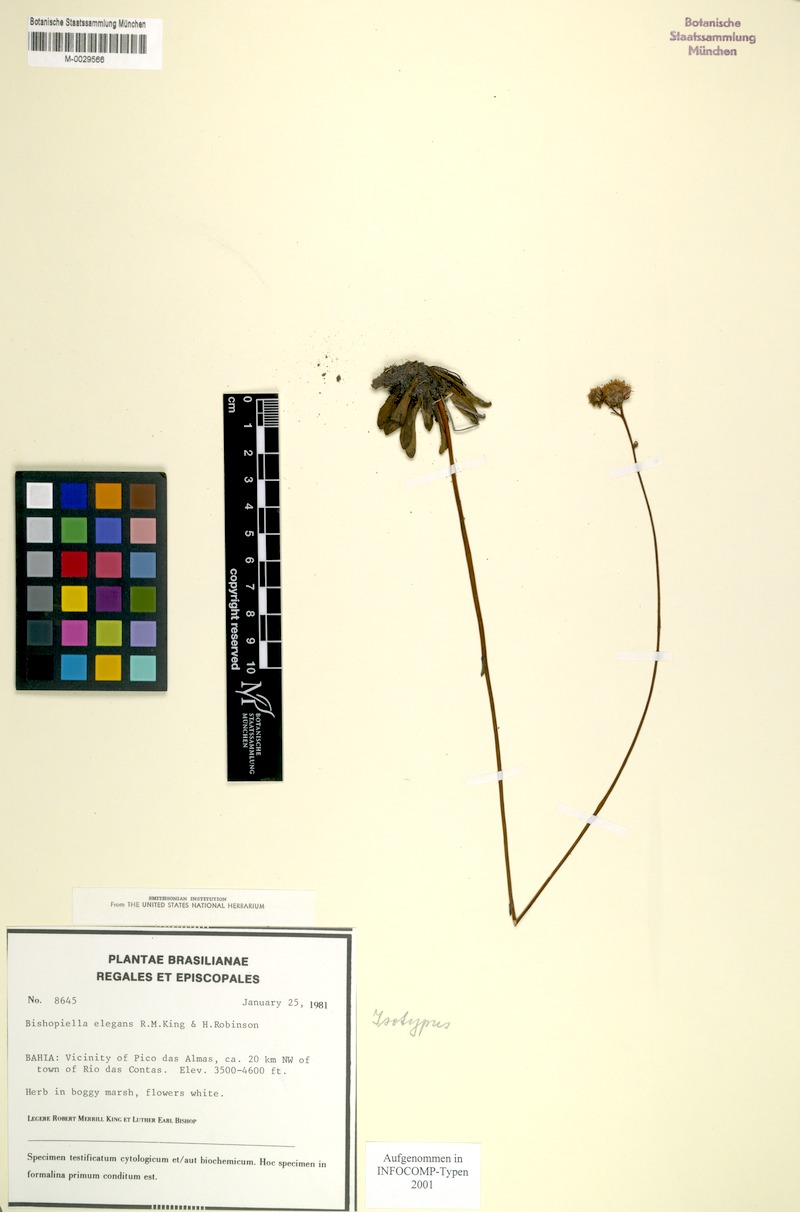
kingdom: Plantae
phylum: Tracheophyta
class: Magnoliopsida
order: Asterales
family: Asteraceae
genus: Bishopiella
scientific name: Bishopiella elegans
